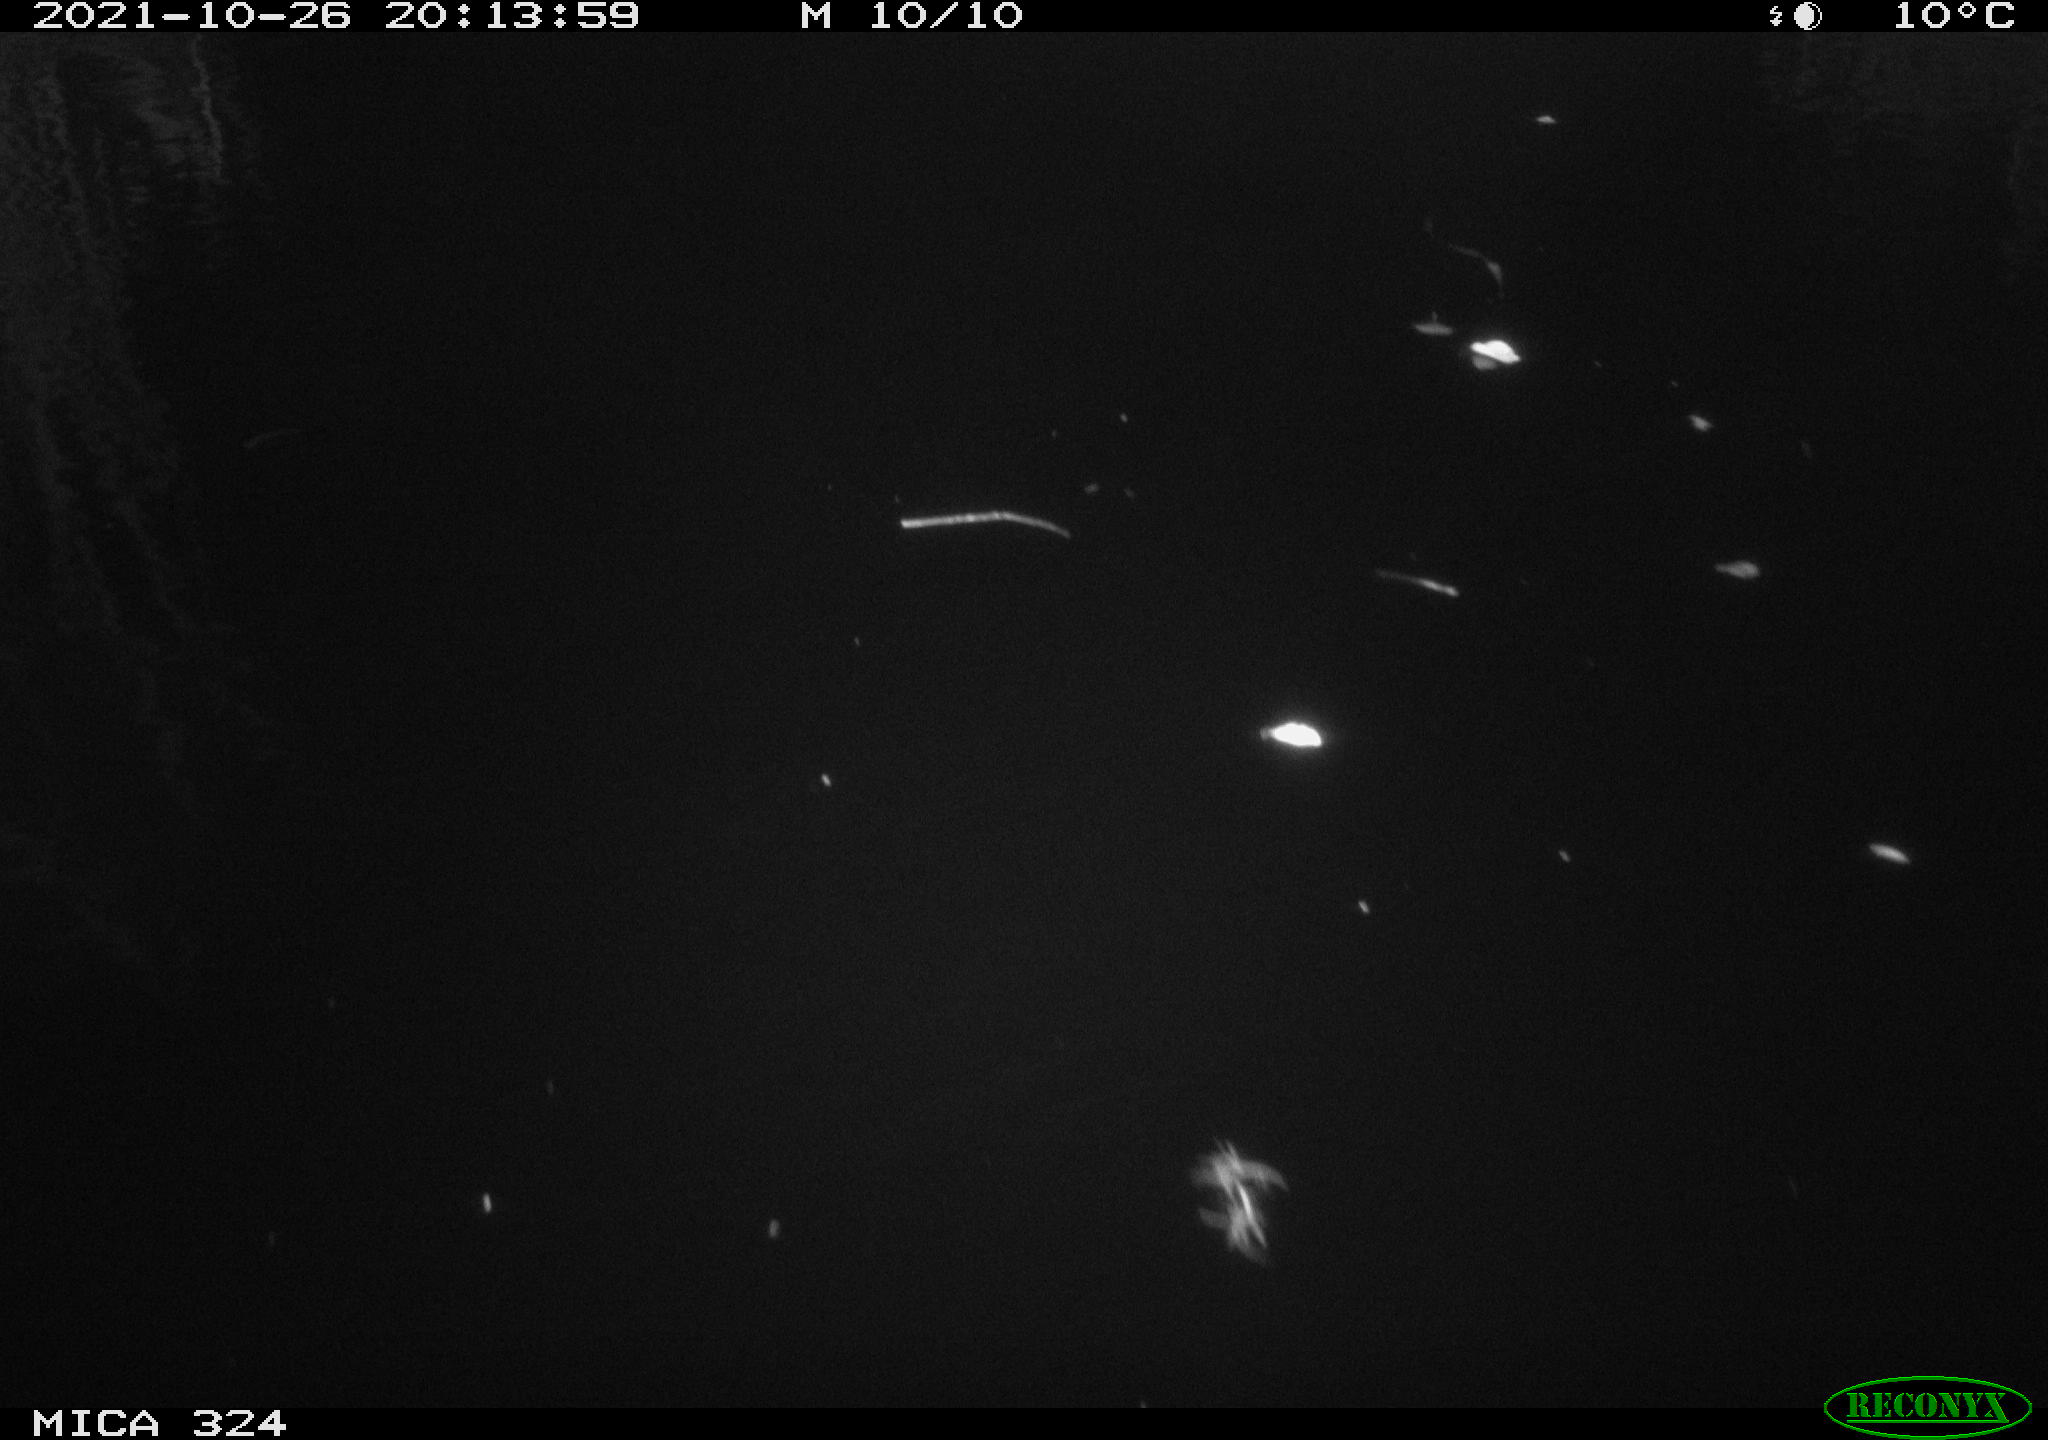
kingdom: Animalia
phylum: Chordata
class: Mammalia
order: Rodentia
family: Cricetidae
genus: Ondatra
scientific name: Ondatra zibethicus
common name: Muskrat
